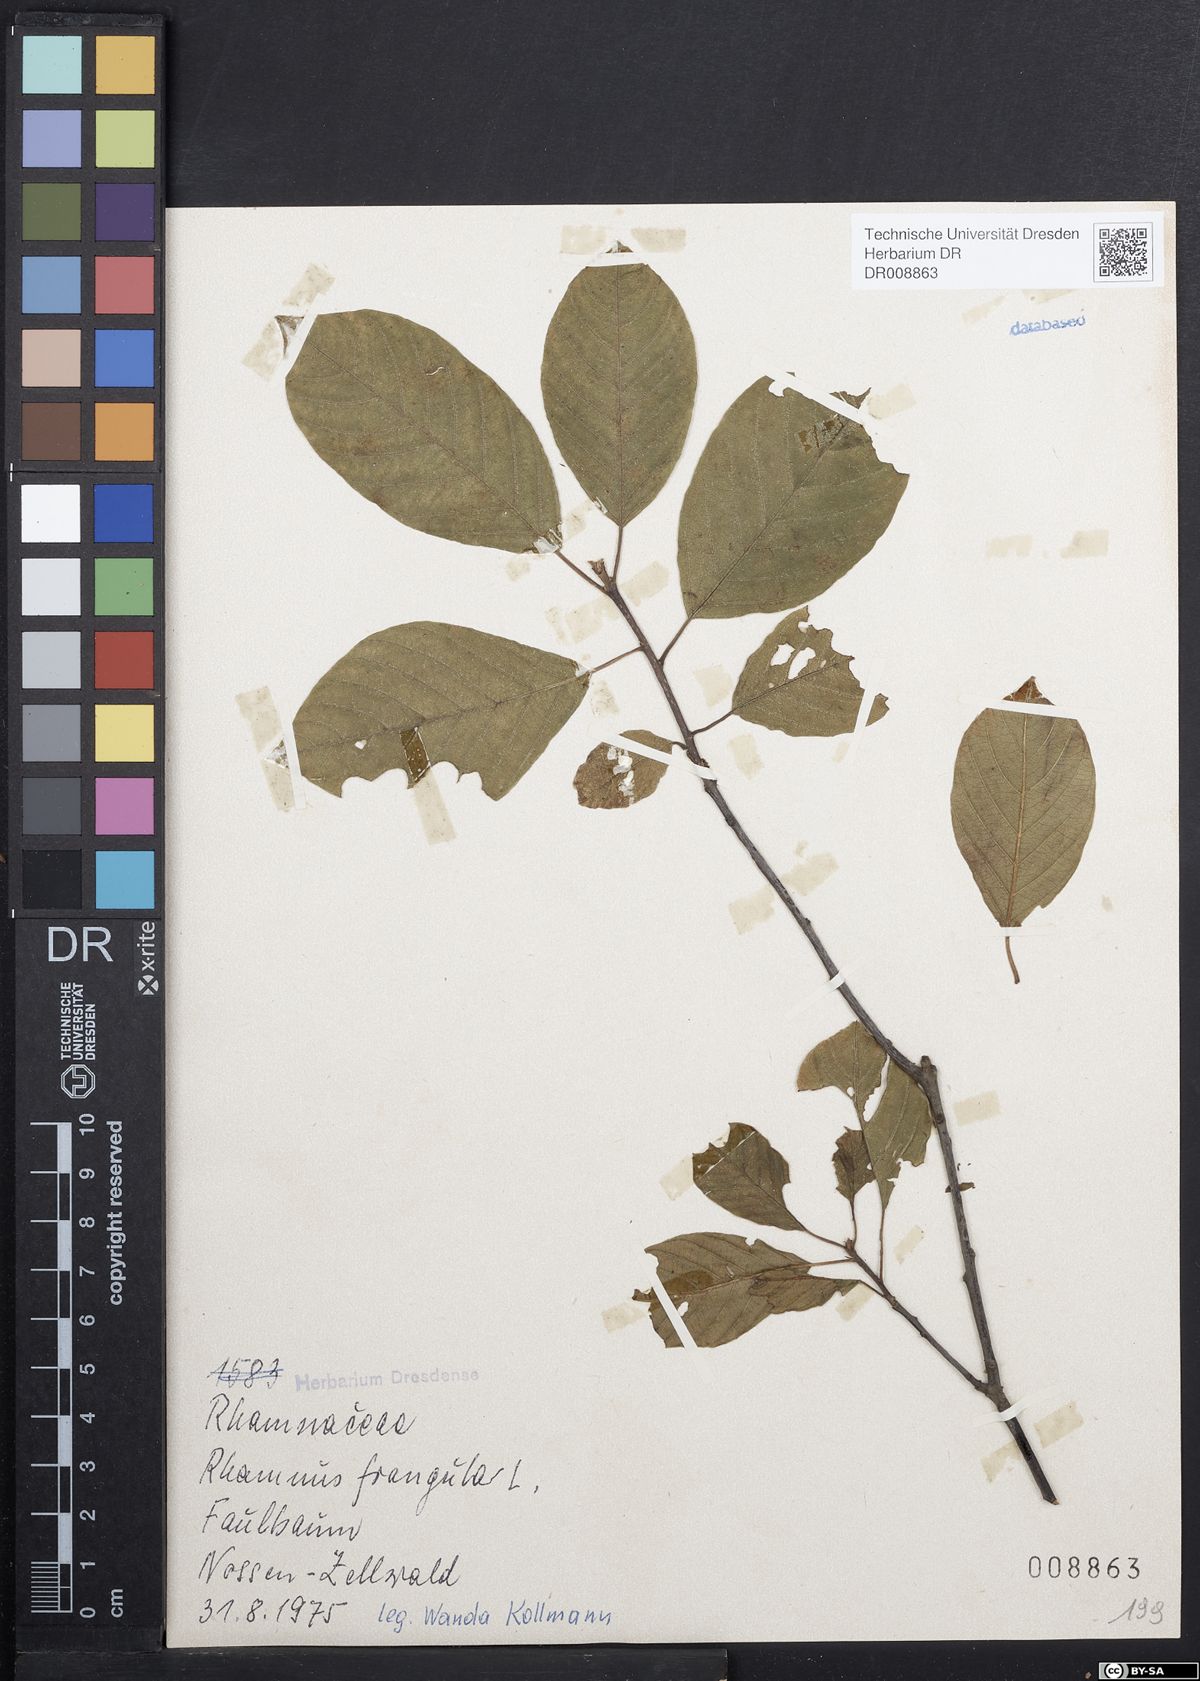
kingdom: Plantae
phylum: Tracheophyta
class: Magnoliopsida
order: Rosales
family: Rhamnaceae
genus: Frangula
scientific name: Frangula alnus
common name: Alder buckthorn
